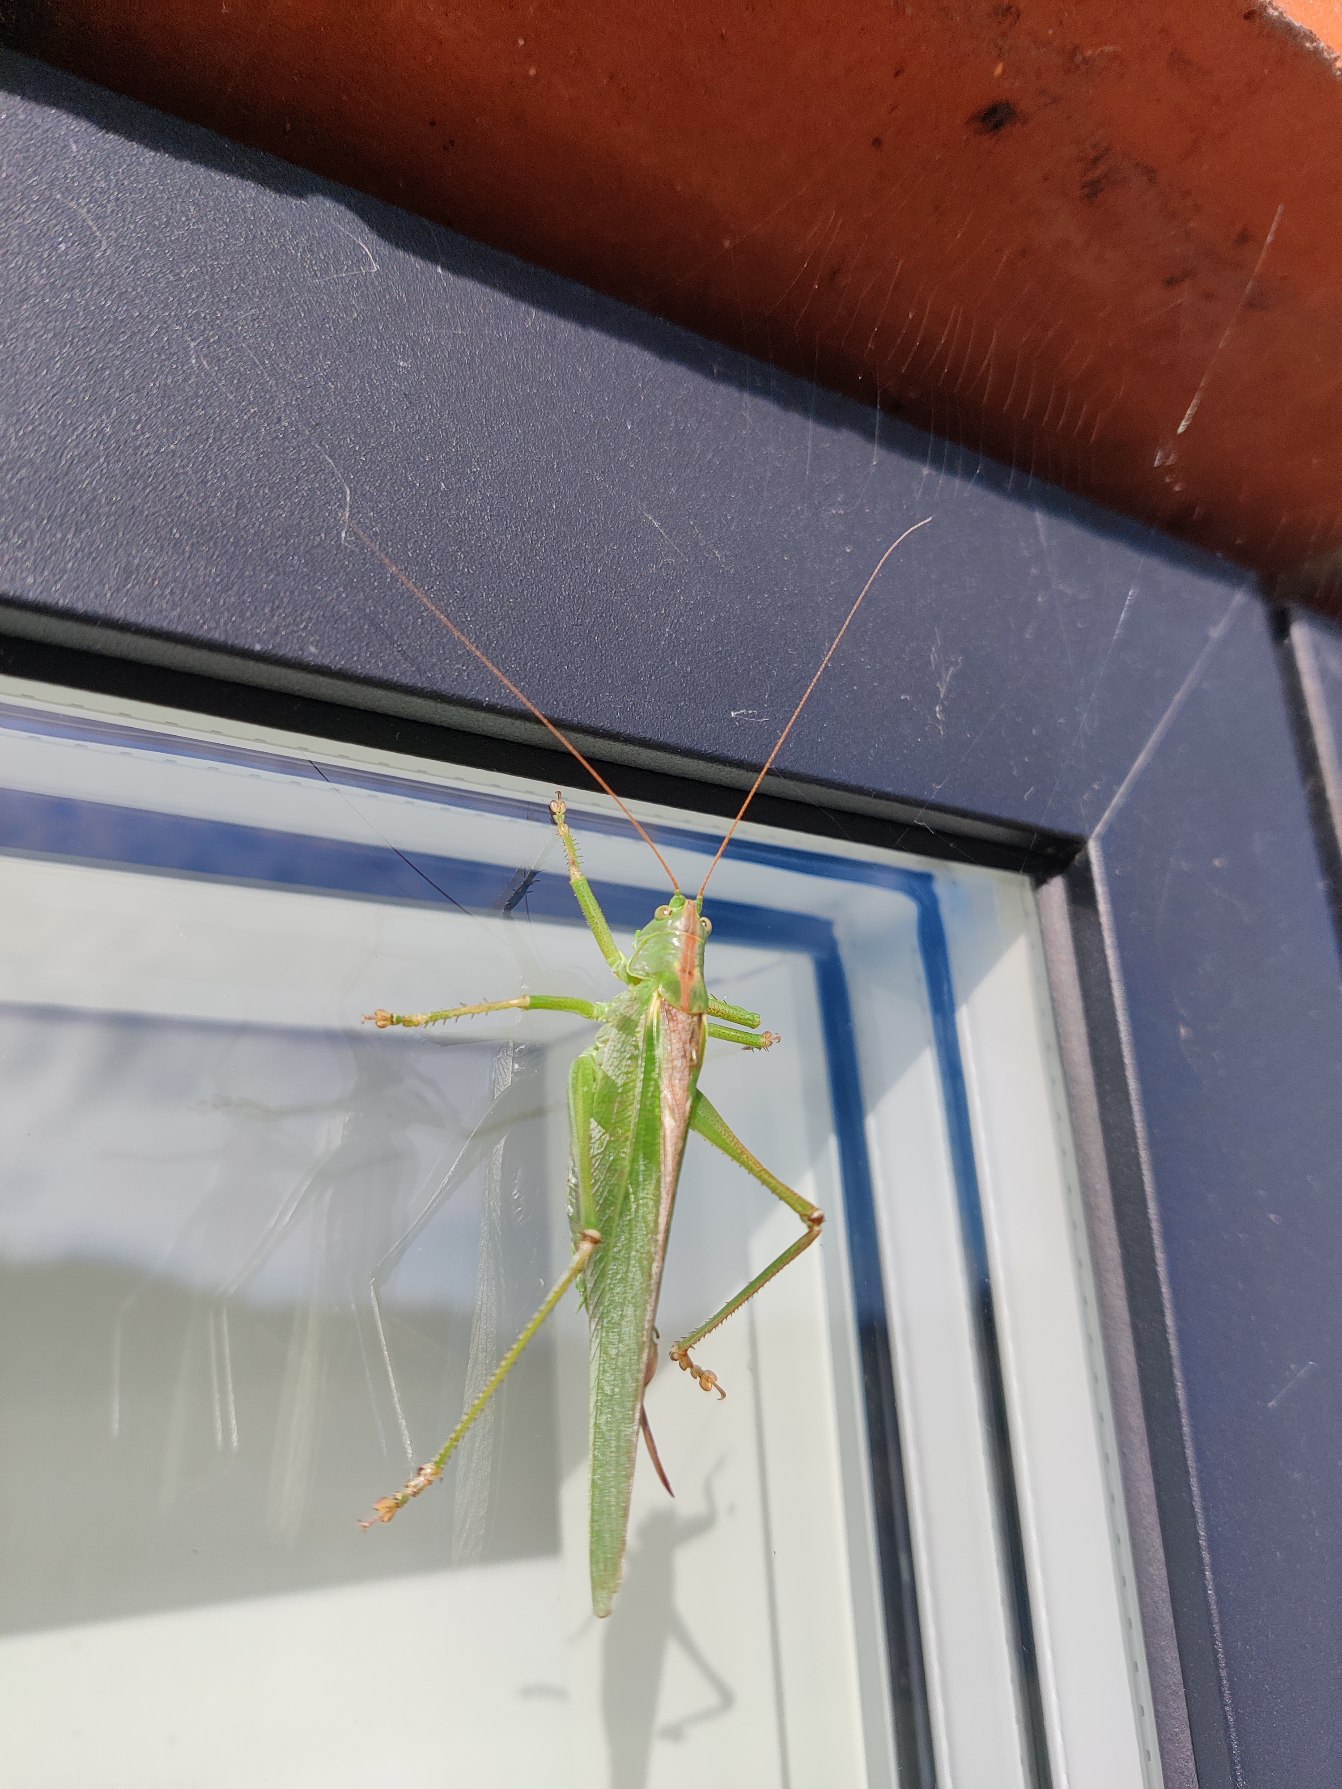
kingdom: Animalia
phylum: Arthropoda
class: Insecta
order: Orthoptera
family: Tettigoniidae
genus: Tettigonia
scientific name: Tettigonia viridissima
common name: Stor grøn løvgræshoppe
